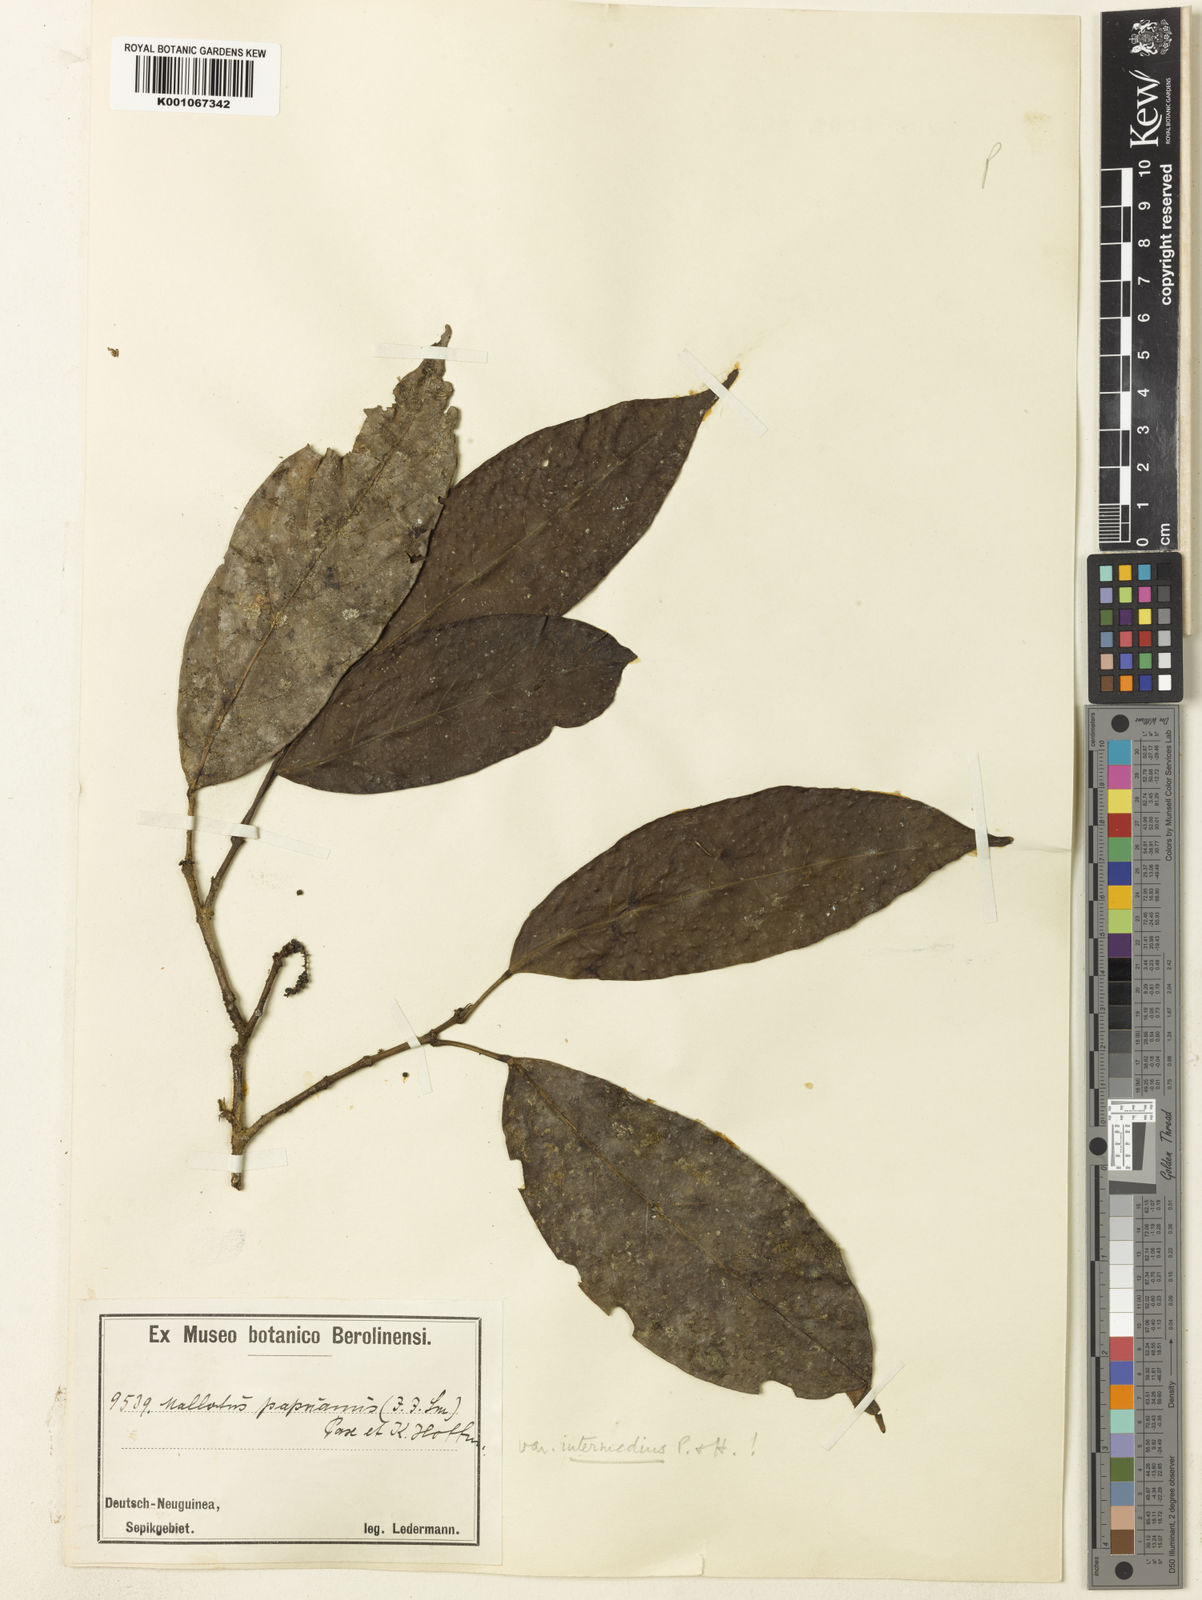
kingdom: Plantae
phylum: Tracheophyta
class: Magnoliopsida
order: Malpighiales
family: Euphorbiaceae
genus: Hancea
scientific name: Hancea papuana
